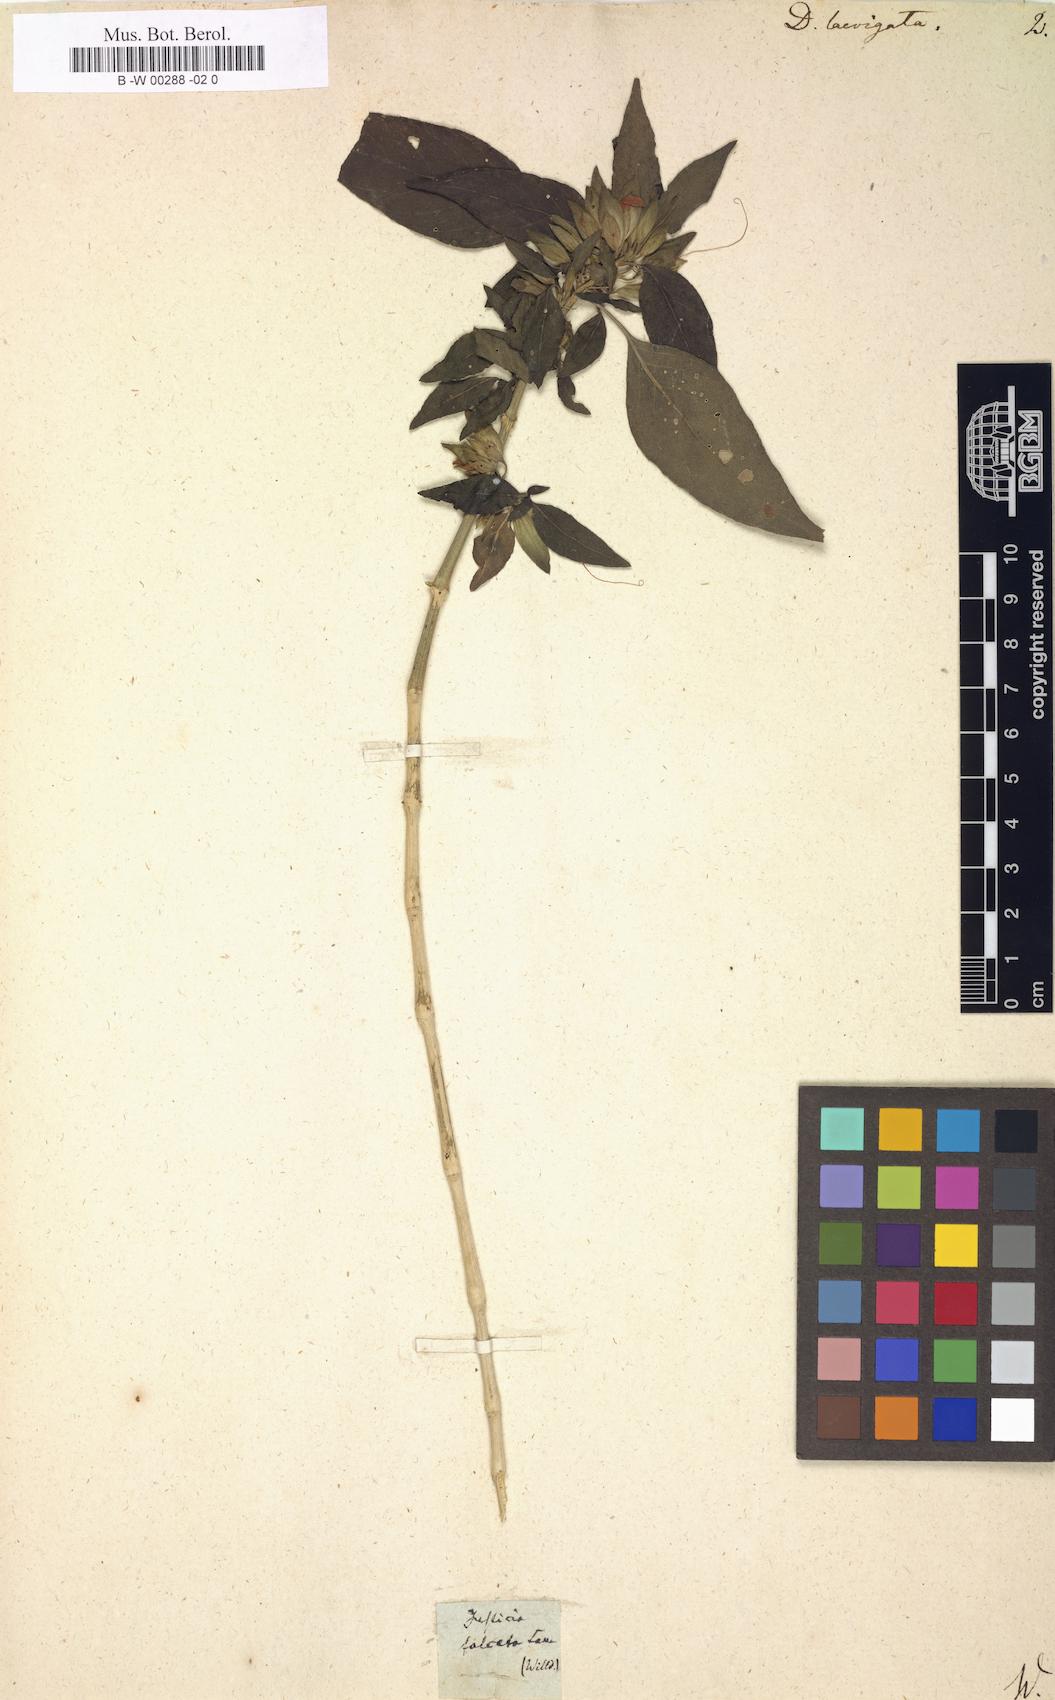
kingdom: Plantae
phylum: Tracheophyta
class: Magnoliopsida
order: Lamiales
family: Acanthaceae
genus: Dicliptera
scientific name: Dicliptera falcata
